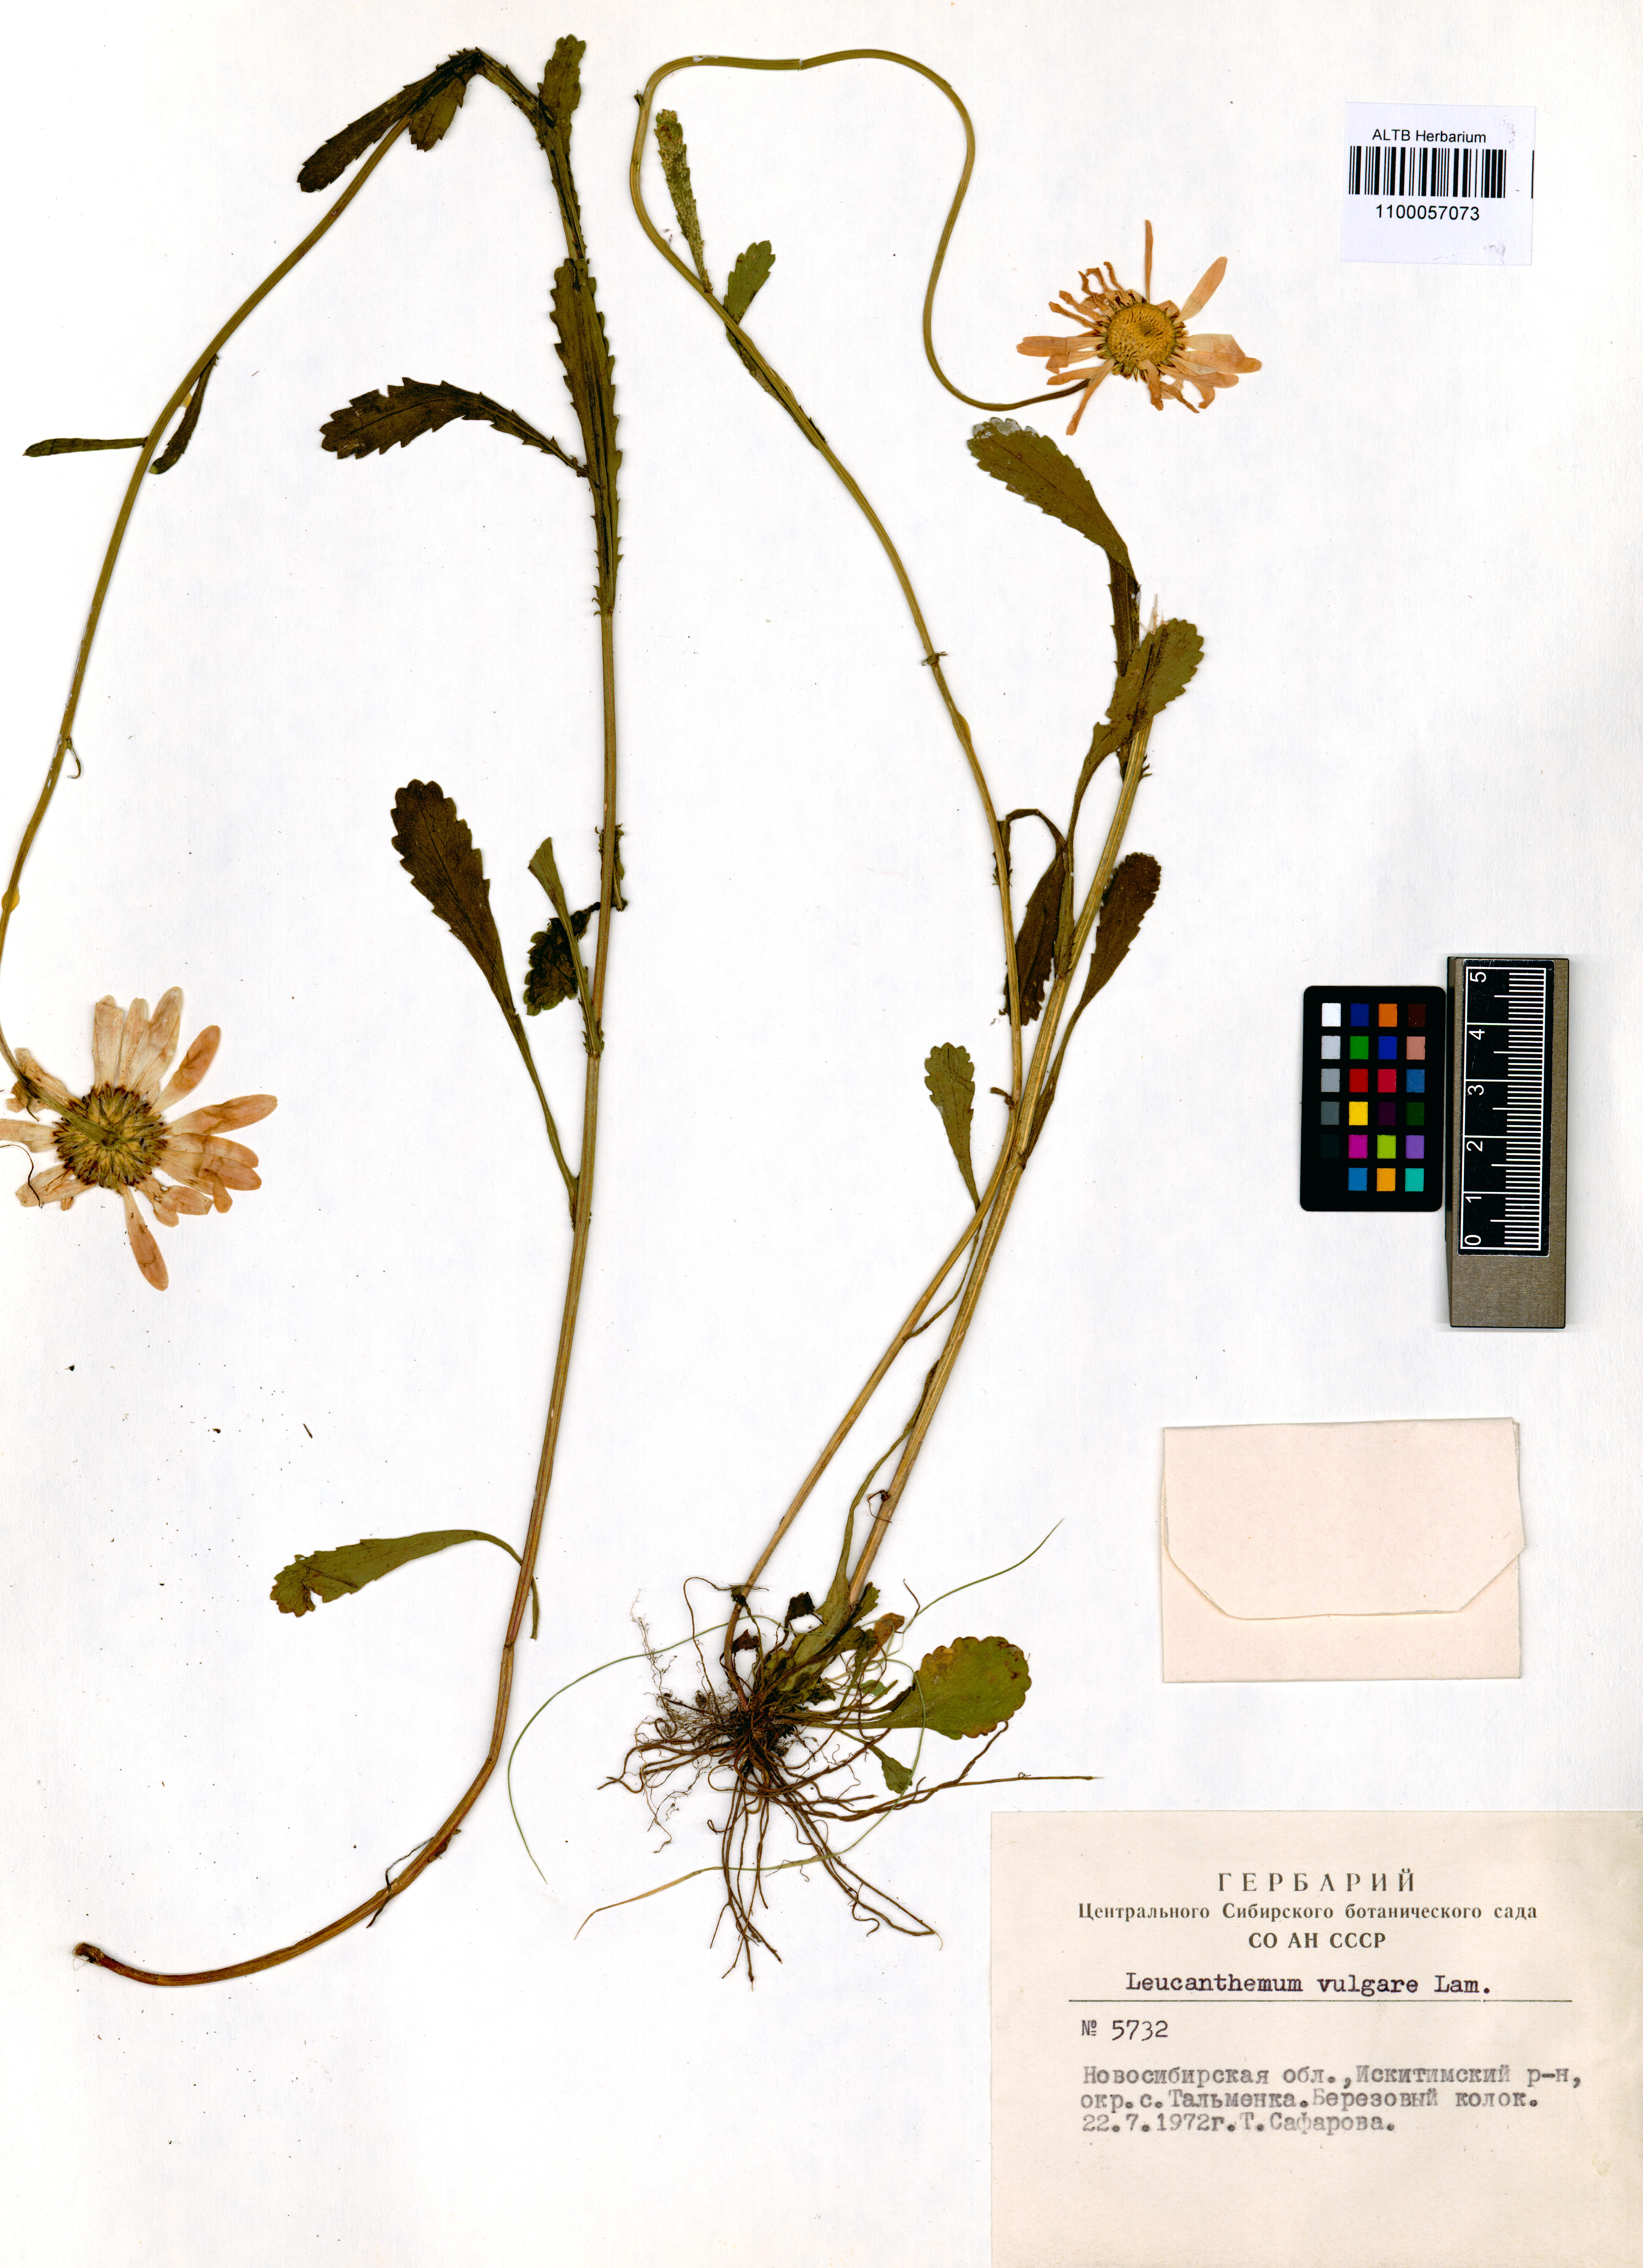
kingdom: Plantae
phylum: Tracheophyta
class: Magnoliopsida
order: Asterales
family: Asteraceae
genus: Leucanthemum
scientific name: Leucanthemum vulgare
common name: Oxeye daisy
